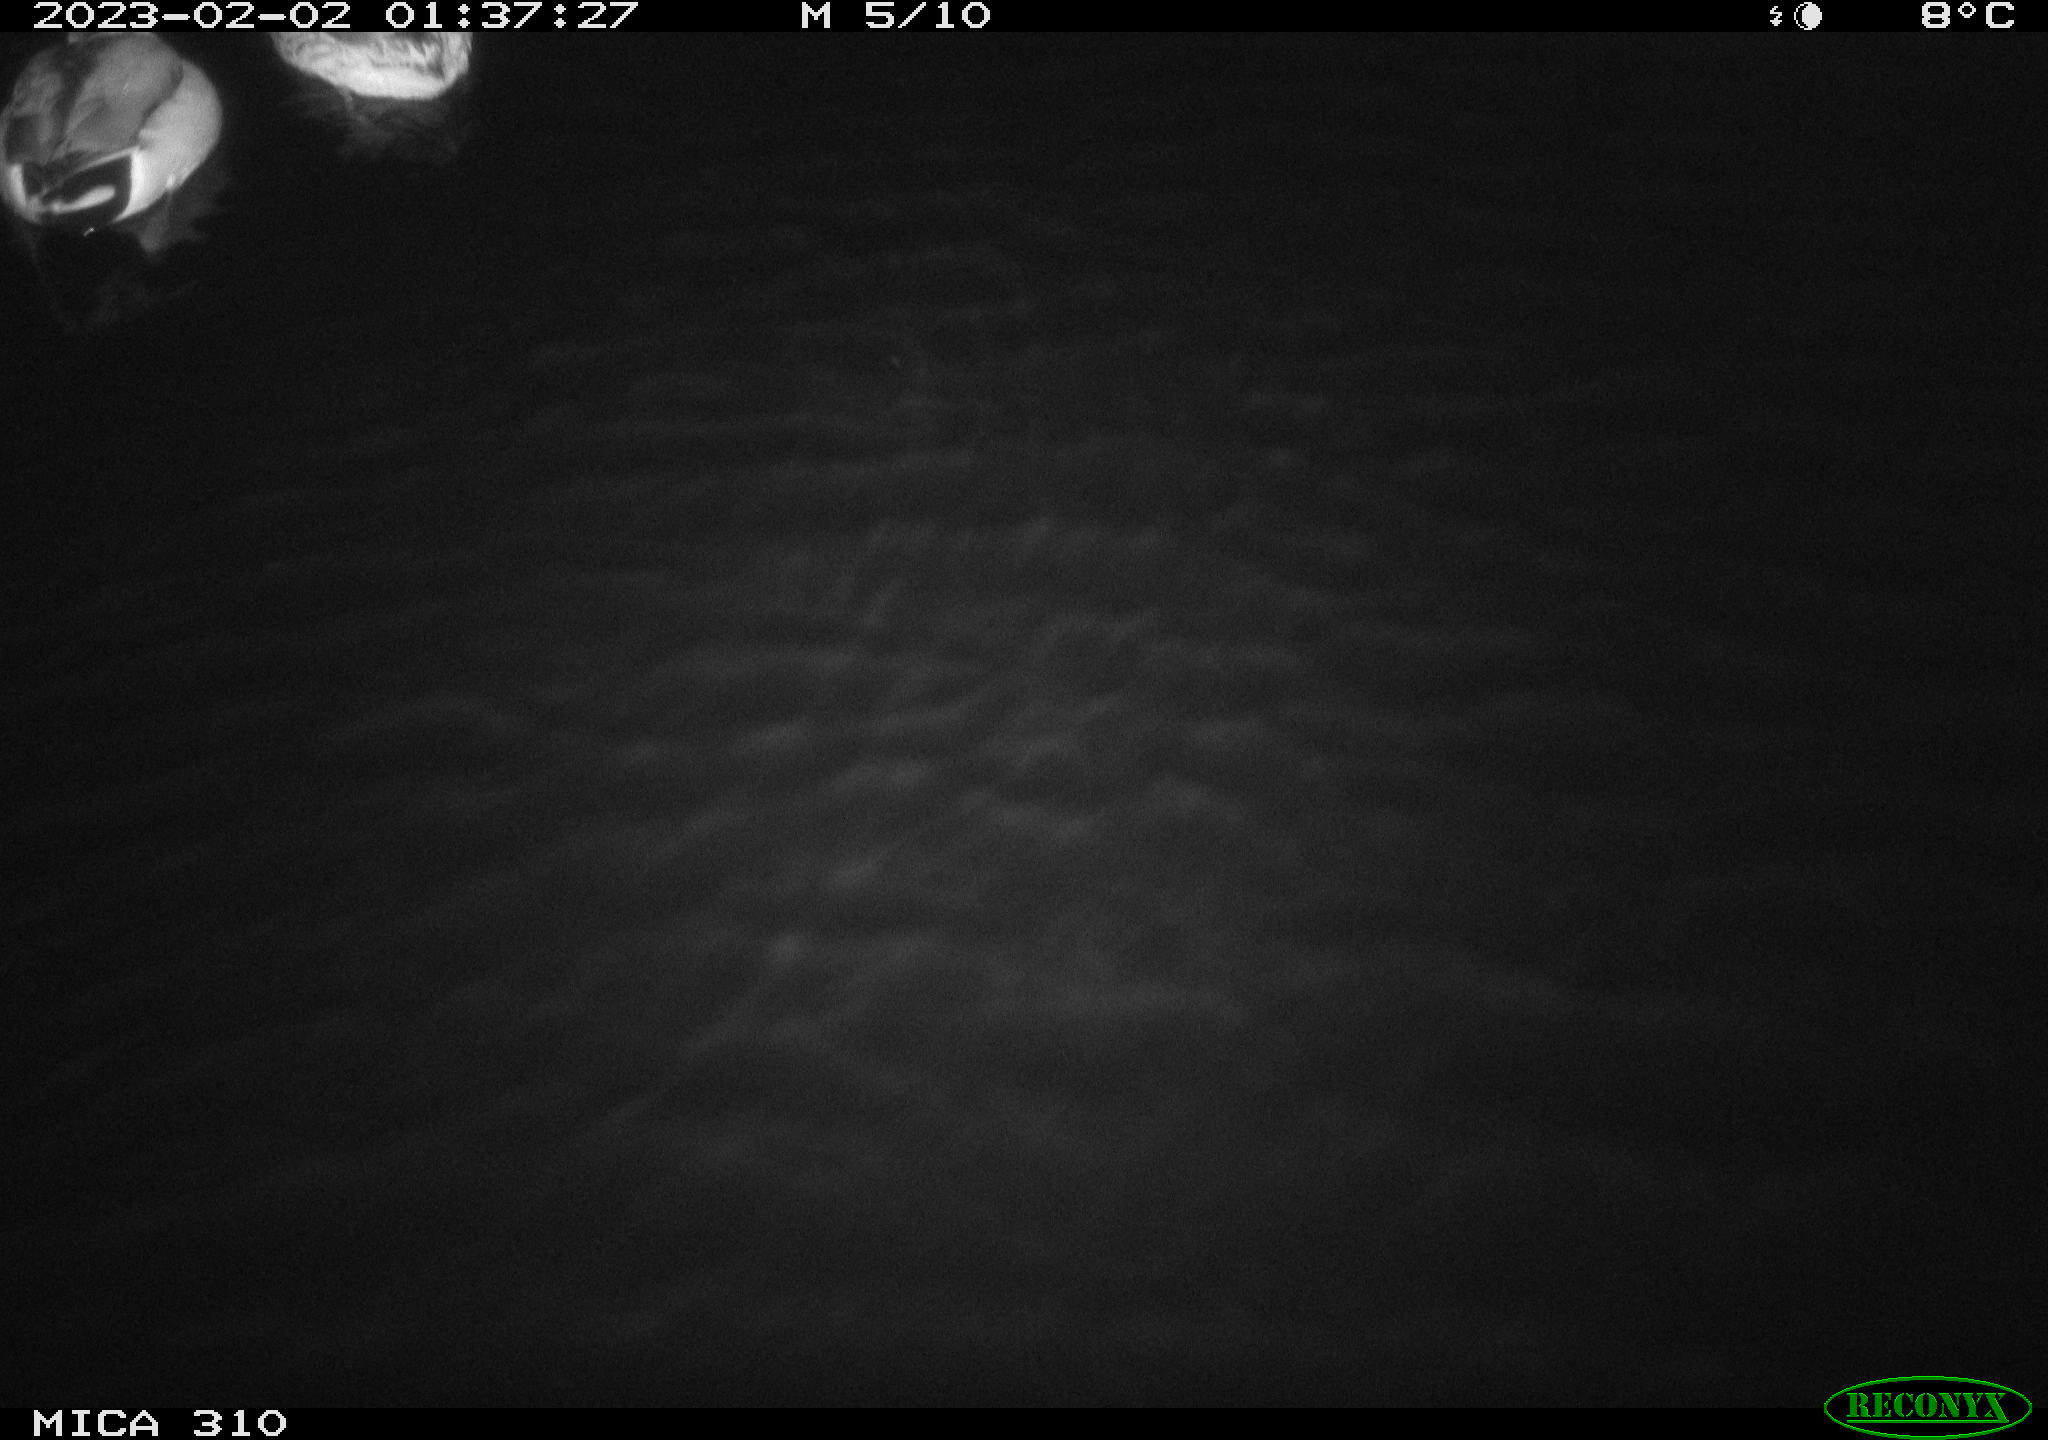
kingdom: Animalia
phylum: Chordata
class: Aves
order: Anseriformes
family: Anatidae
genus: Anas
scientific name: Anas
